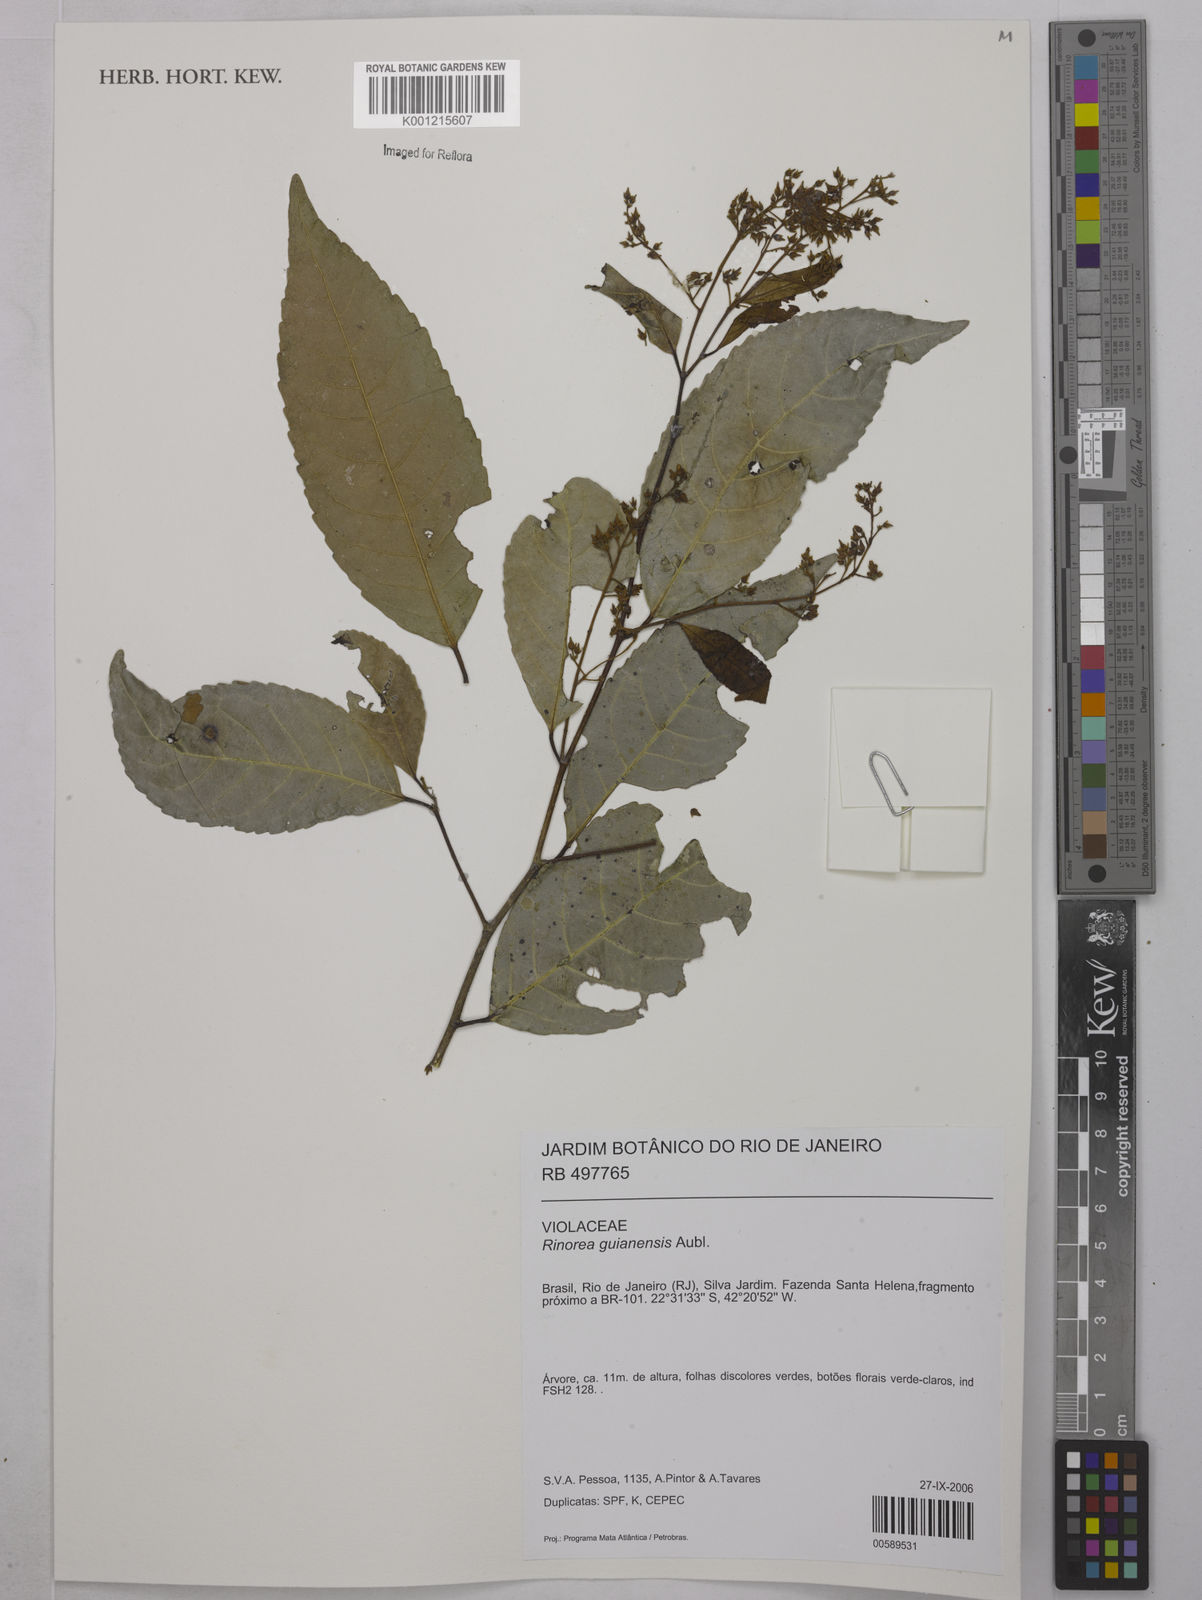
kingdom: Plantae
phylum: Tracheophyta
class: Magnoliopsida
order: Malpighiales
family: Violaceae
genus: Rinorea
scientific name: Rinorea guianensis
